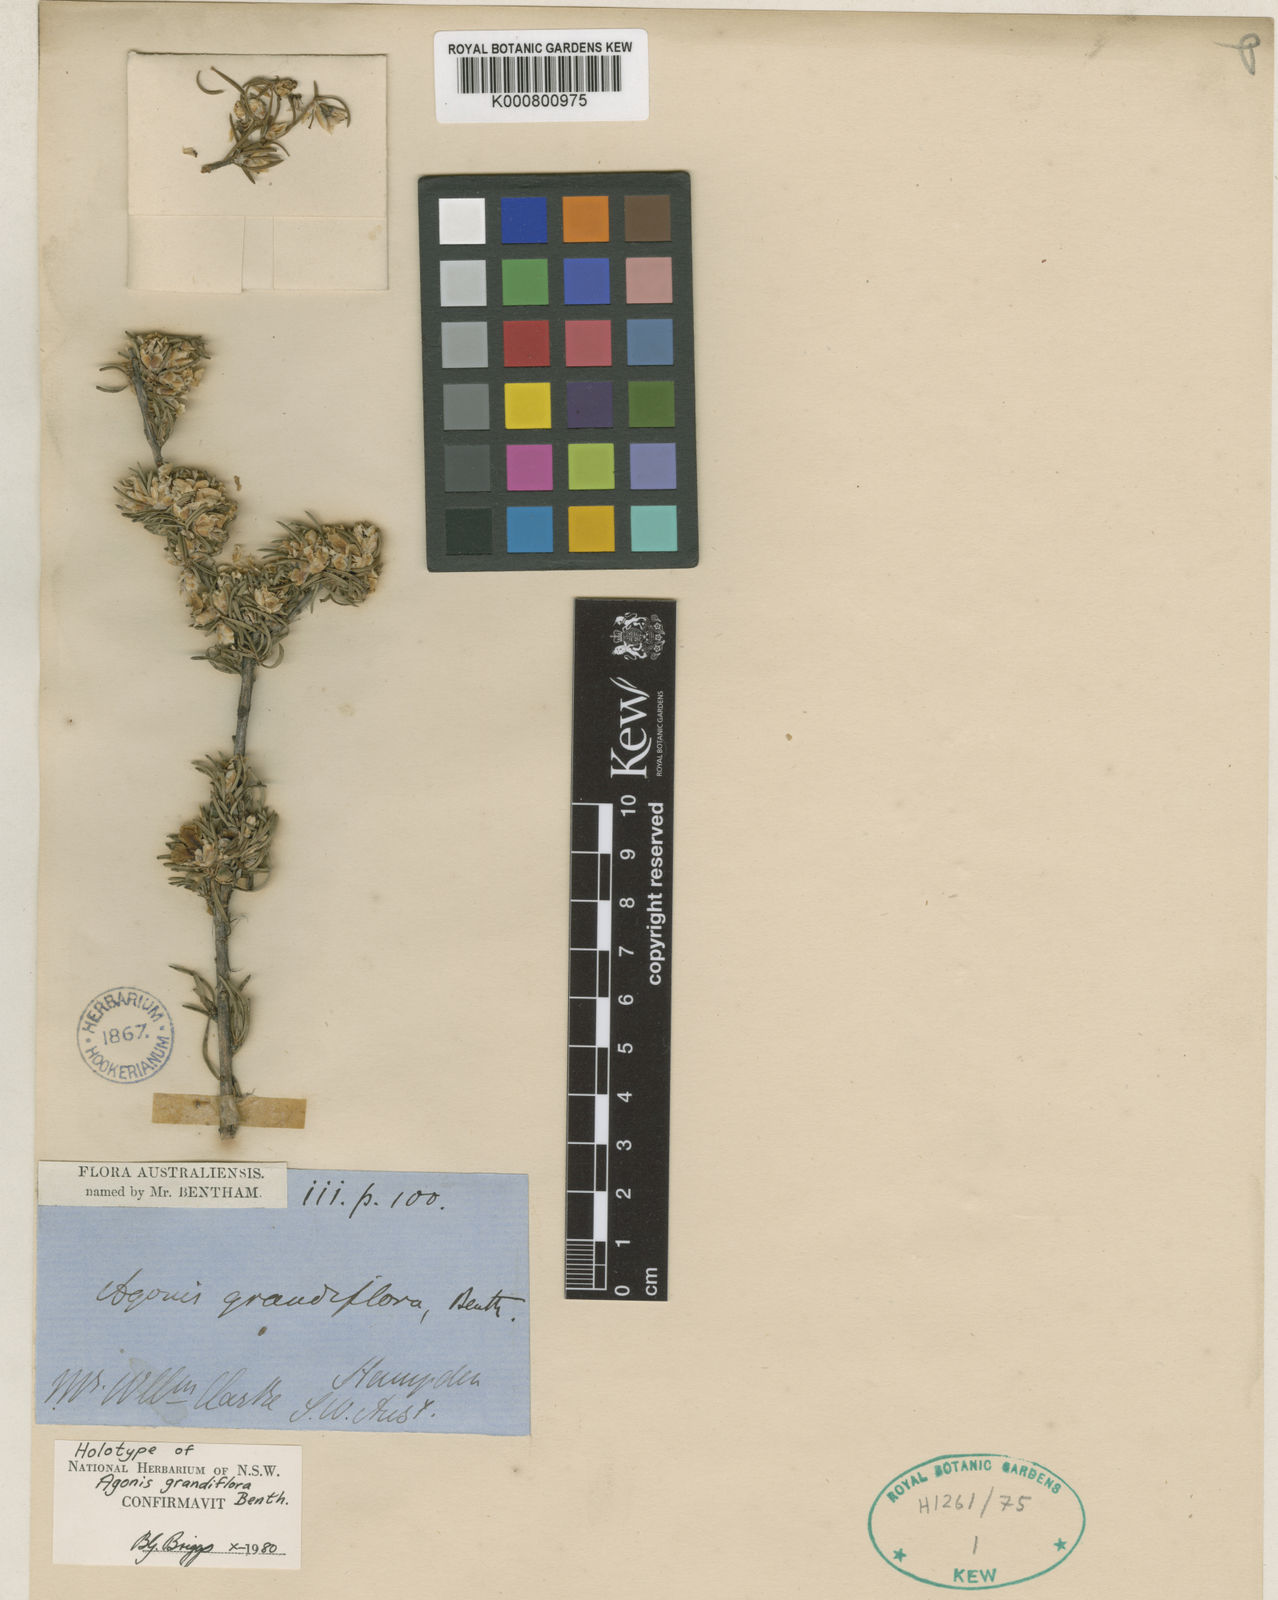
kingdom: Plantae
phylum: Tracheophyta
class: Magnoliopsida
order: Myrtales
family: Myrtaceae
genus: Agonis
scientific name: Agonis grandiflora
